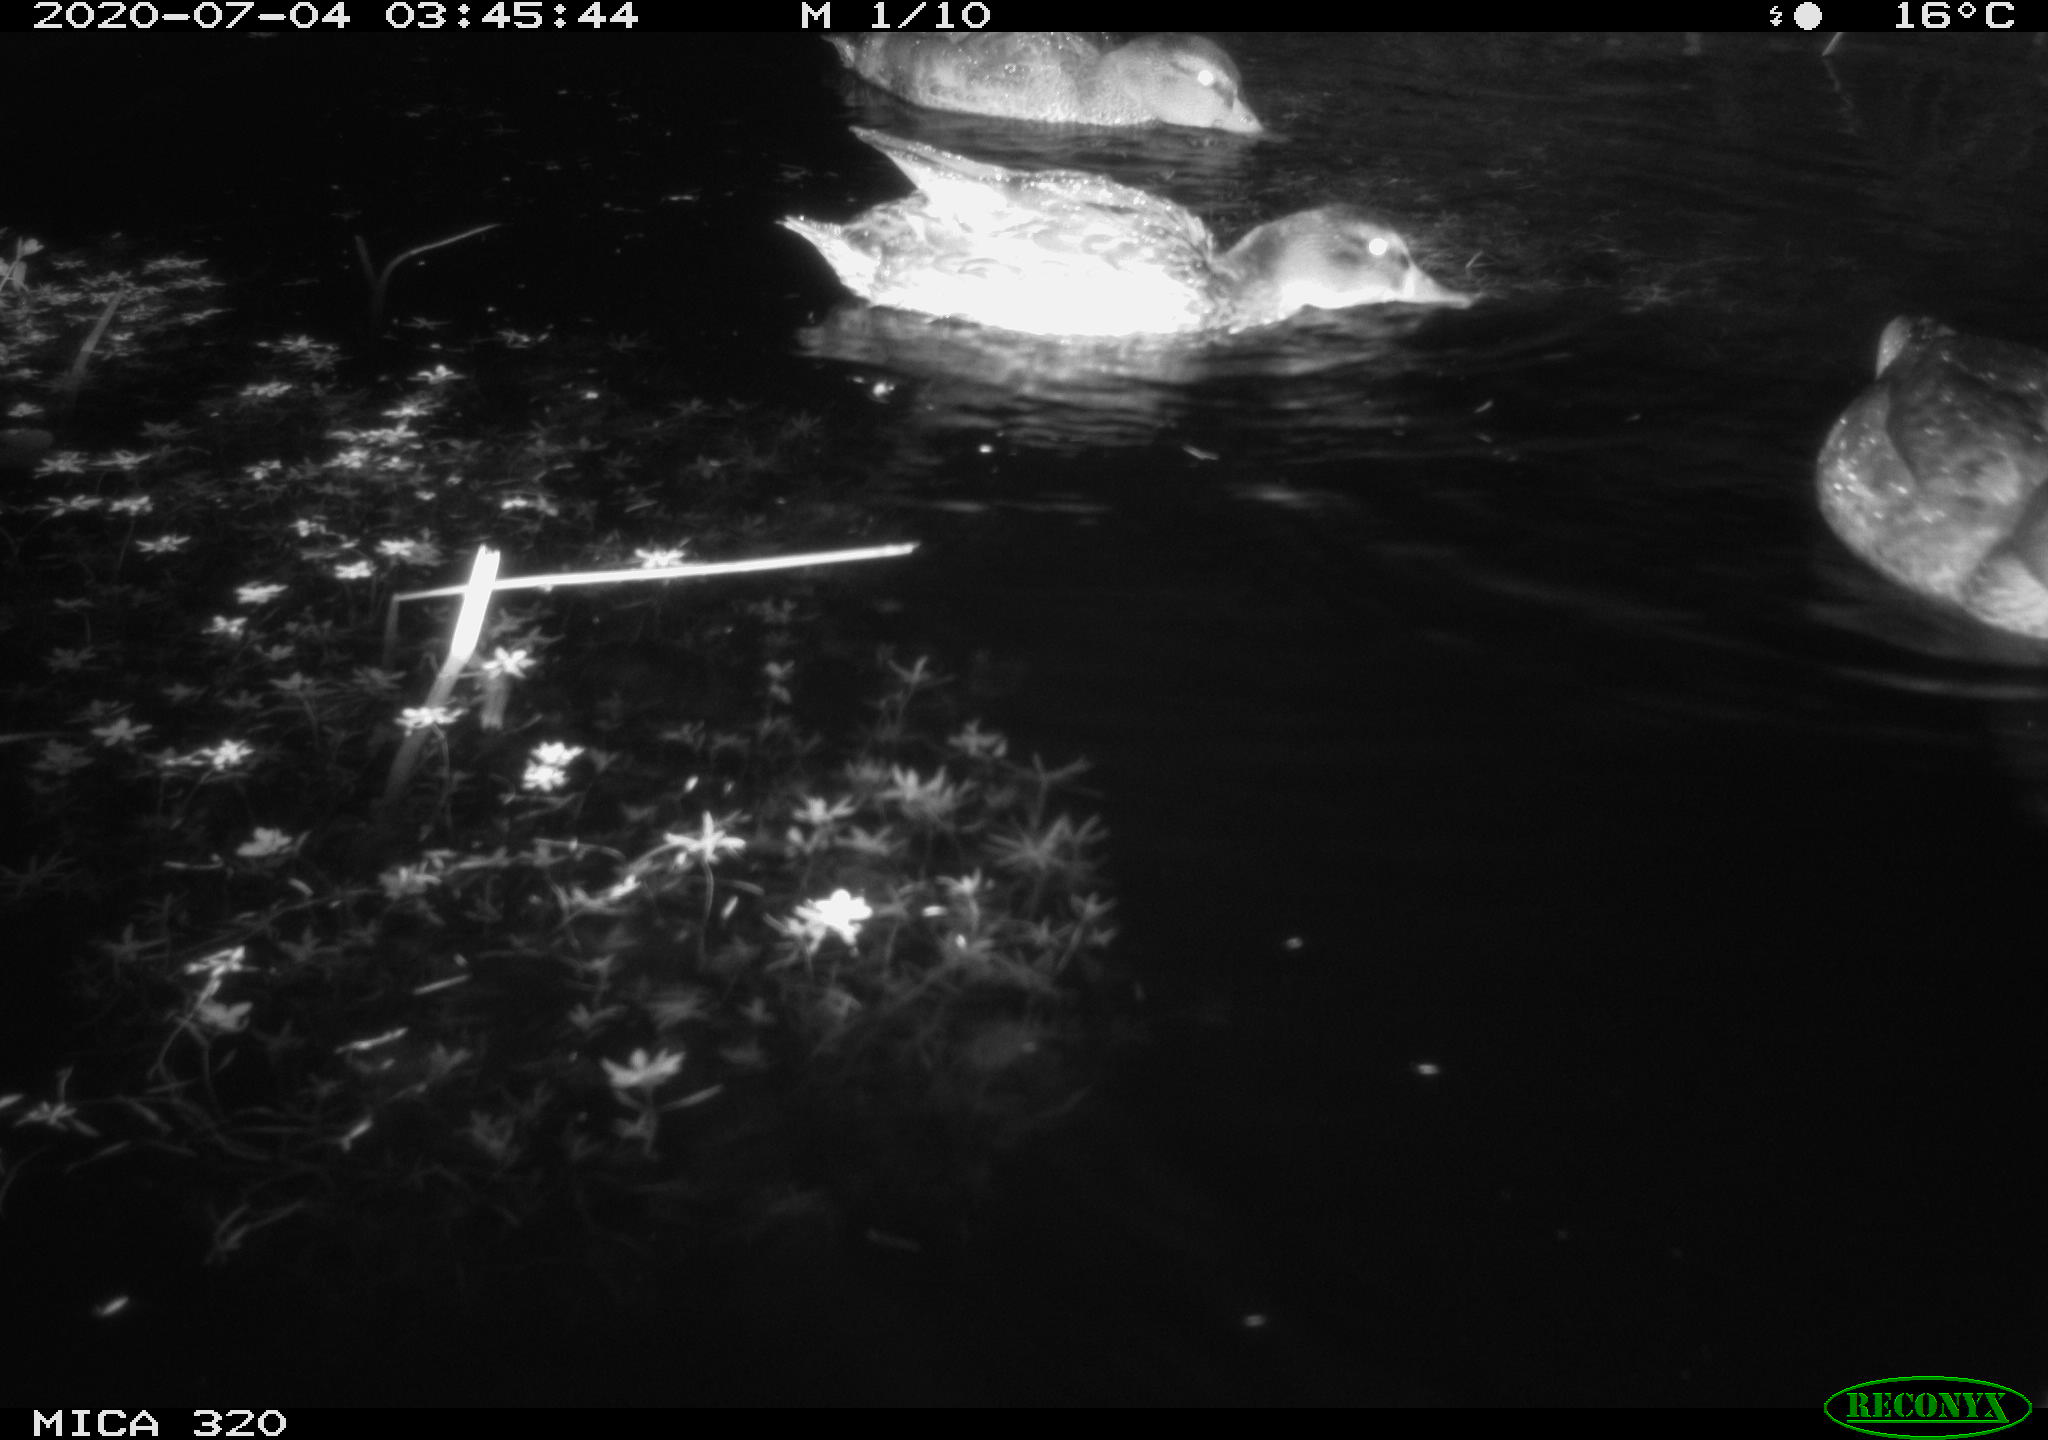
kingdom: Animalia
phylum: Chordata
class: Aves
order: Anseriformes
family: Anatidae
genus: Anas
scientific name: Anas platyrhynchos
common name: Mallard
